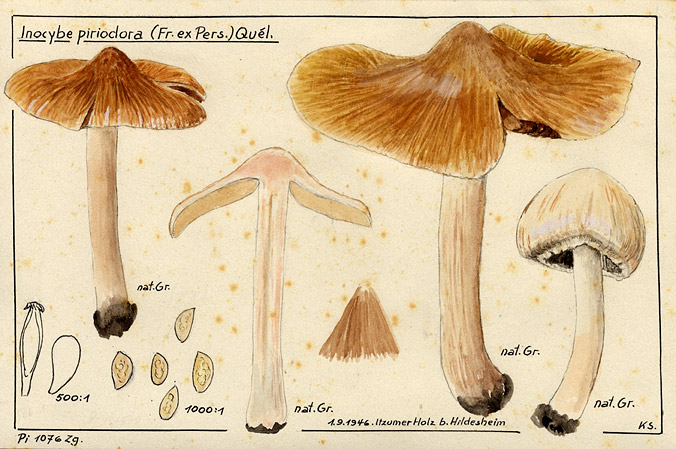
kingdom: Fungi
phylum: Basidiomycota
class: Agaricomycetes
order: Agaricales
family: Inocybaceae
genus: Inocybe
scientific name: Inocybe fraudans
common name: Pear fibrecap
